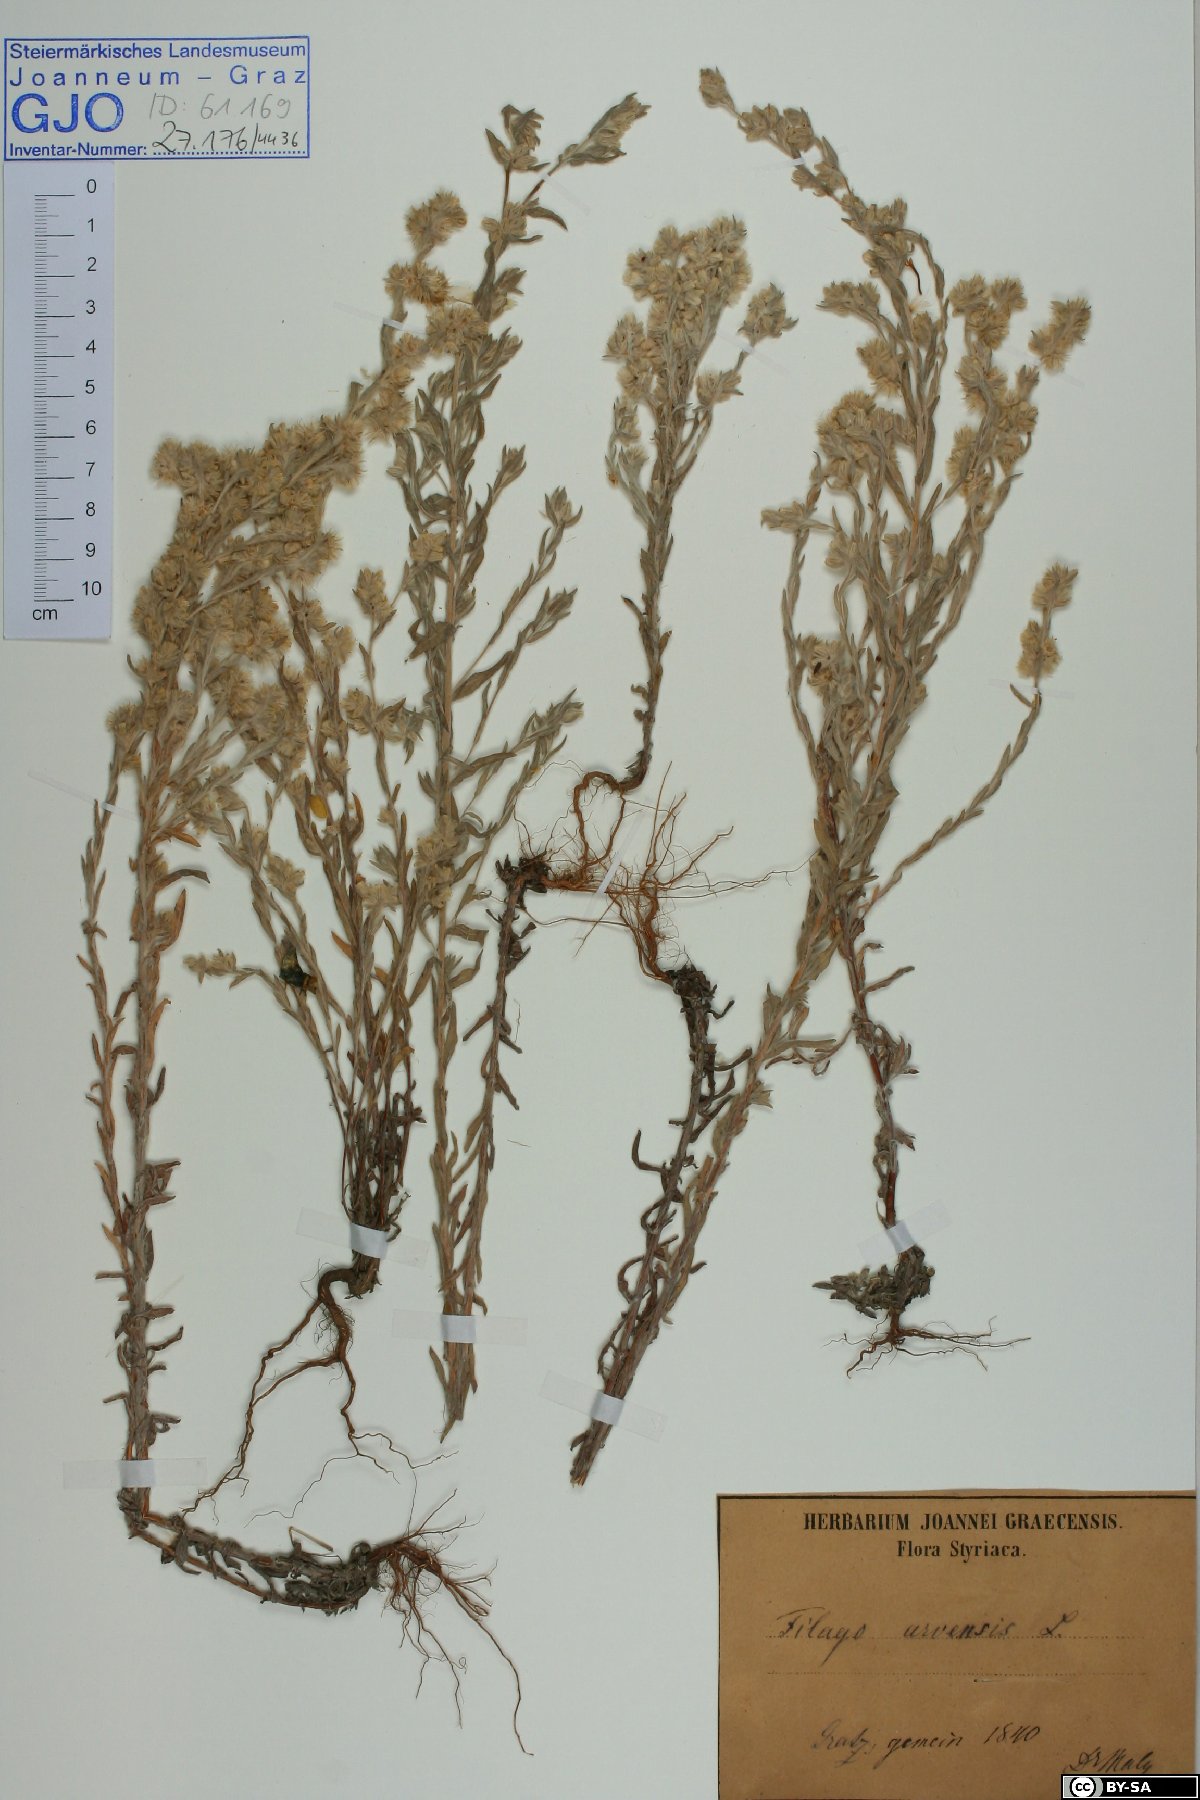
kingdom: Plantae
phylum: Tracheophyta
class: Magnoliopsida
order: Asterales
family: Asteraceae
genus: Filago
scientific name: Filago arvensis
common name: Field cudweed
